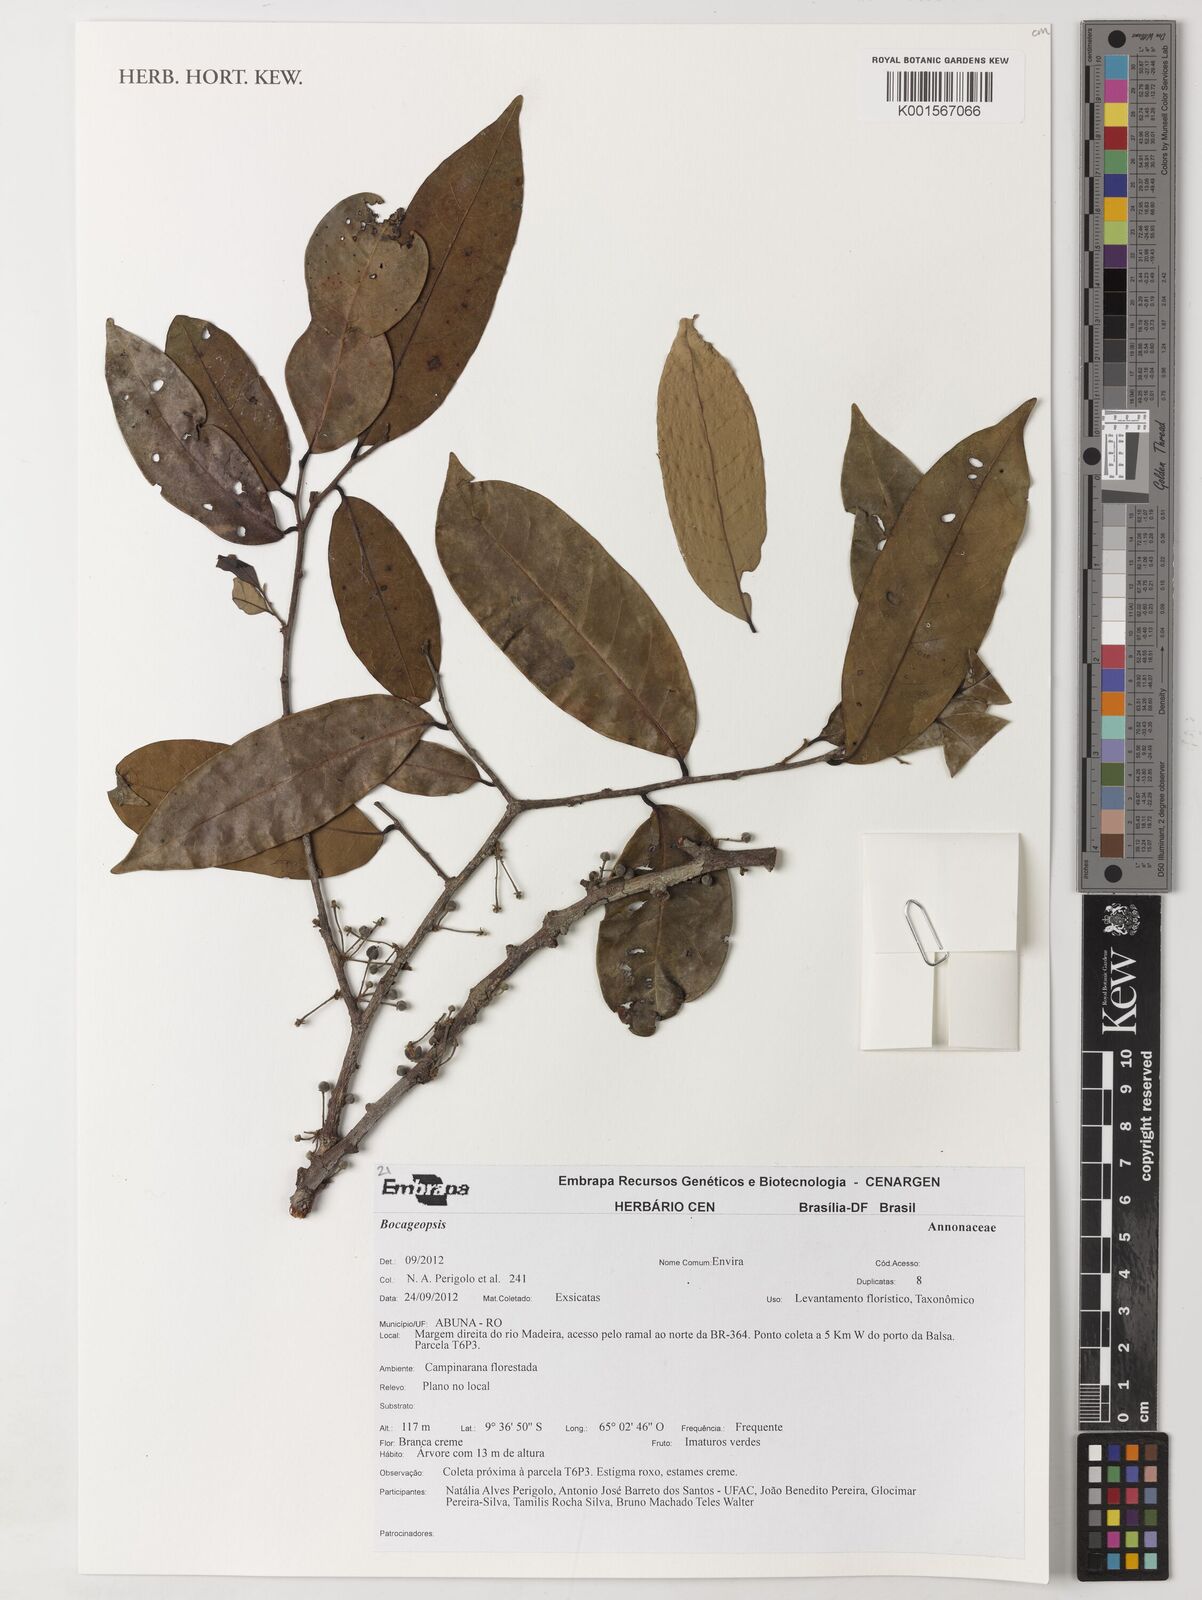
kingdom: Plantae
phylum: Tracheophyta
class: Magnoliopsida
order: Magnoliales
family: Annonaceae
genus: Bocageopsis
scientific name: Bocageopsis
